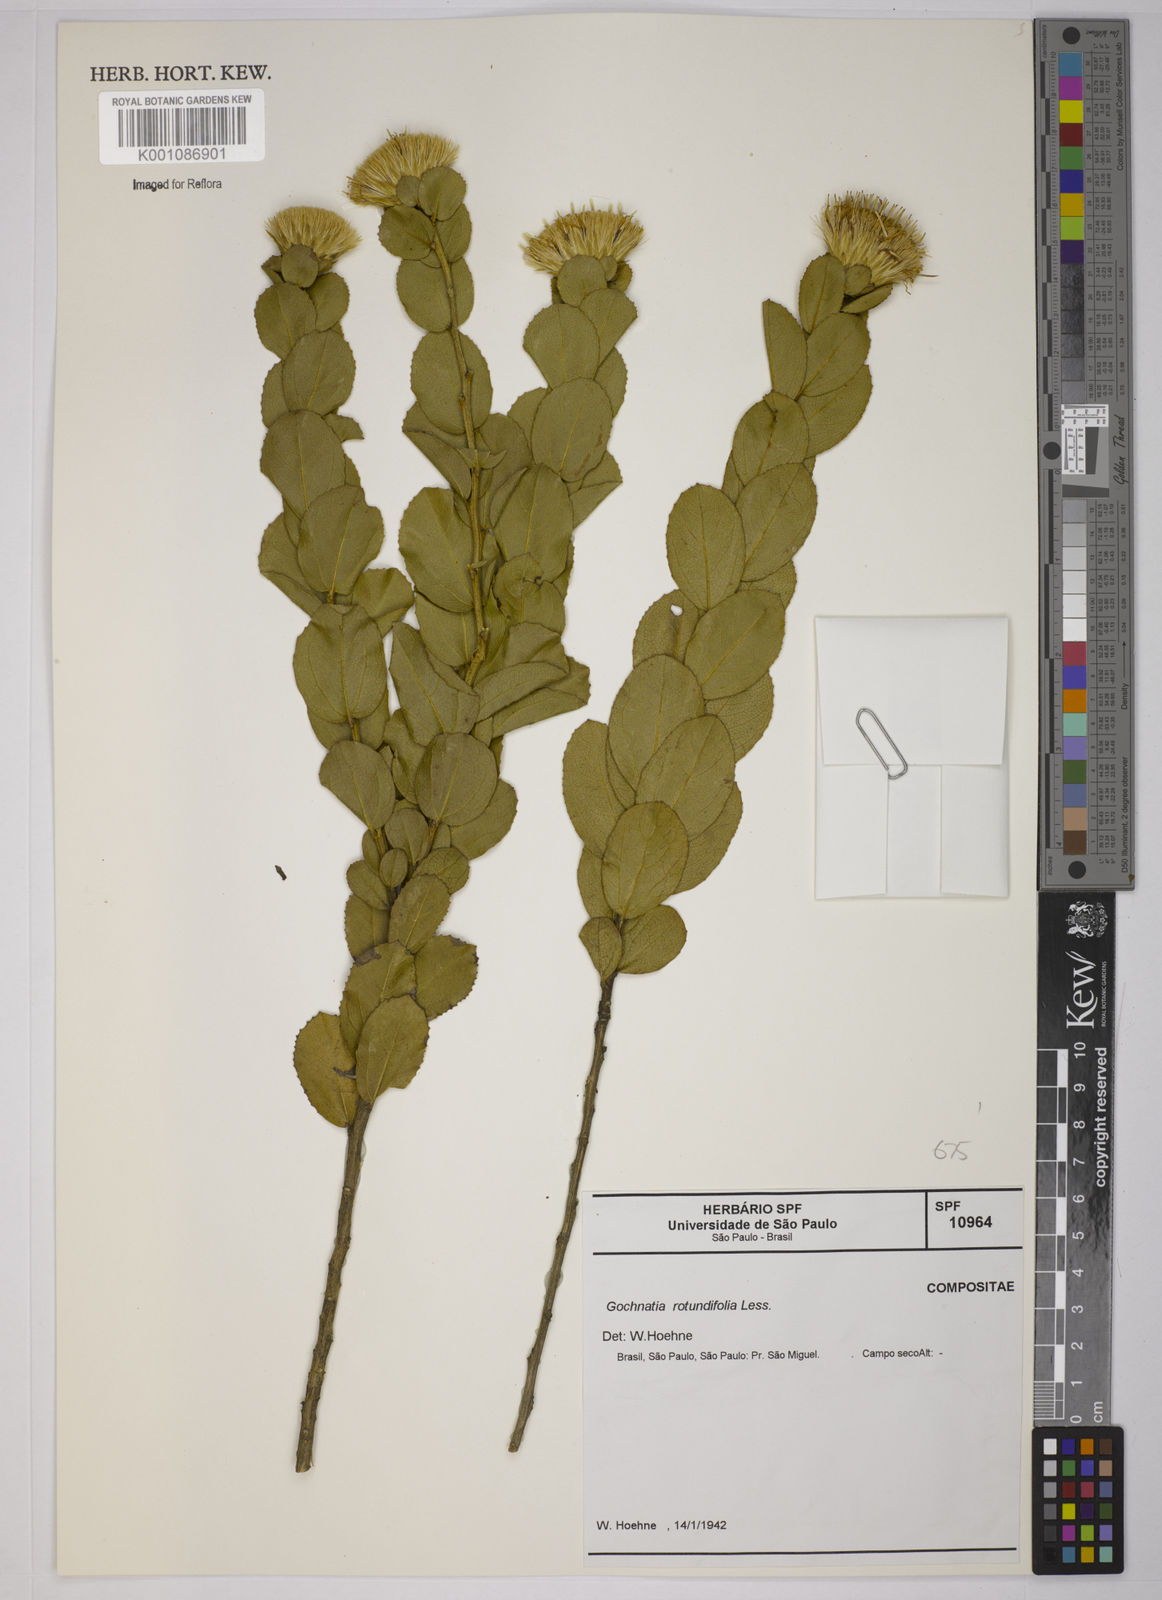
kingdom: Plantae
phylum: Tracheophyta
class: Magnoliopsida
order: Asterales
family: Asteraceae
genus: Vickia
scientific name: Vickia rotundifolia
